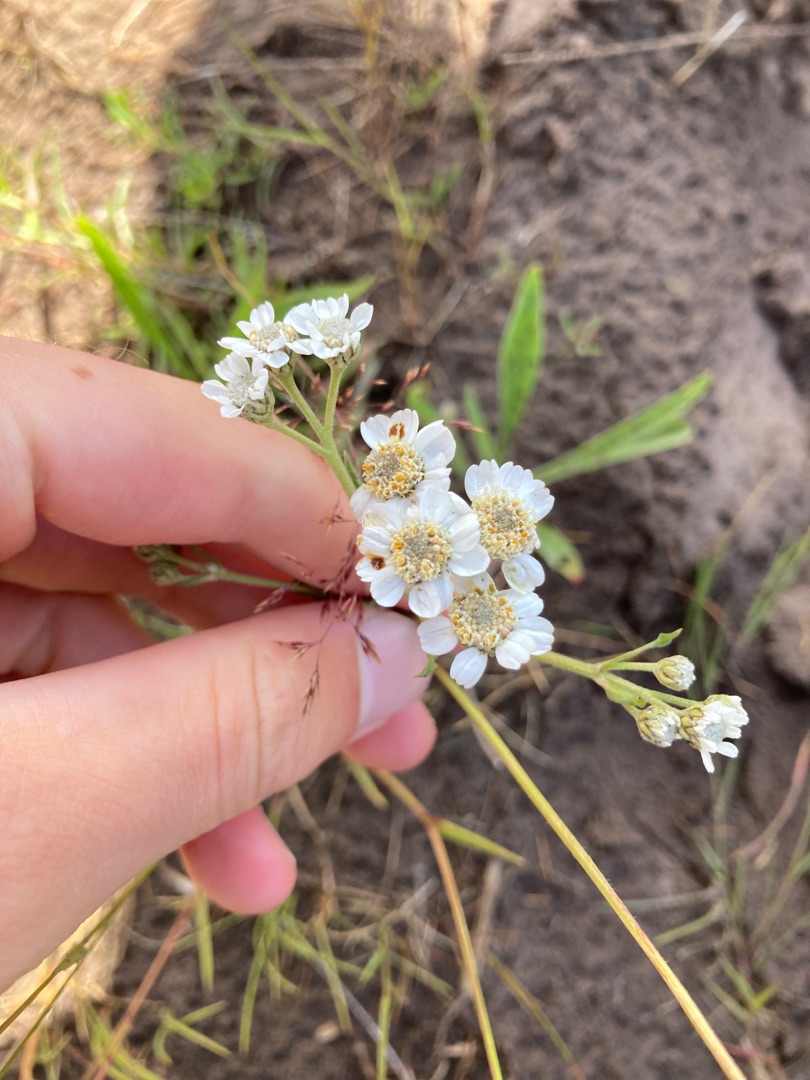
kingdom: Plantae
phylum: Tracheophyta
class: Magnoliopsida
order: Asterales
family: Asteraceae
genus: Achillea
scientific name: Achillea ptarmica
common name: Nyse-røllike
